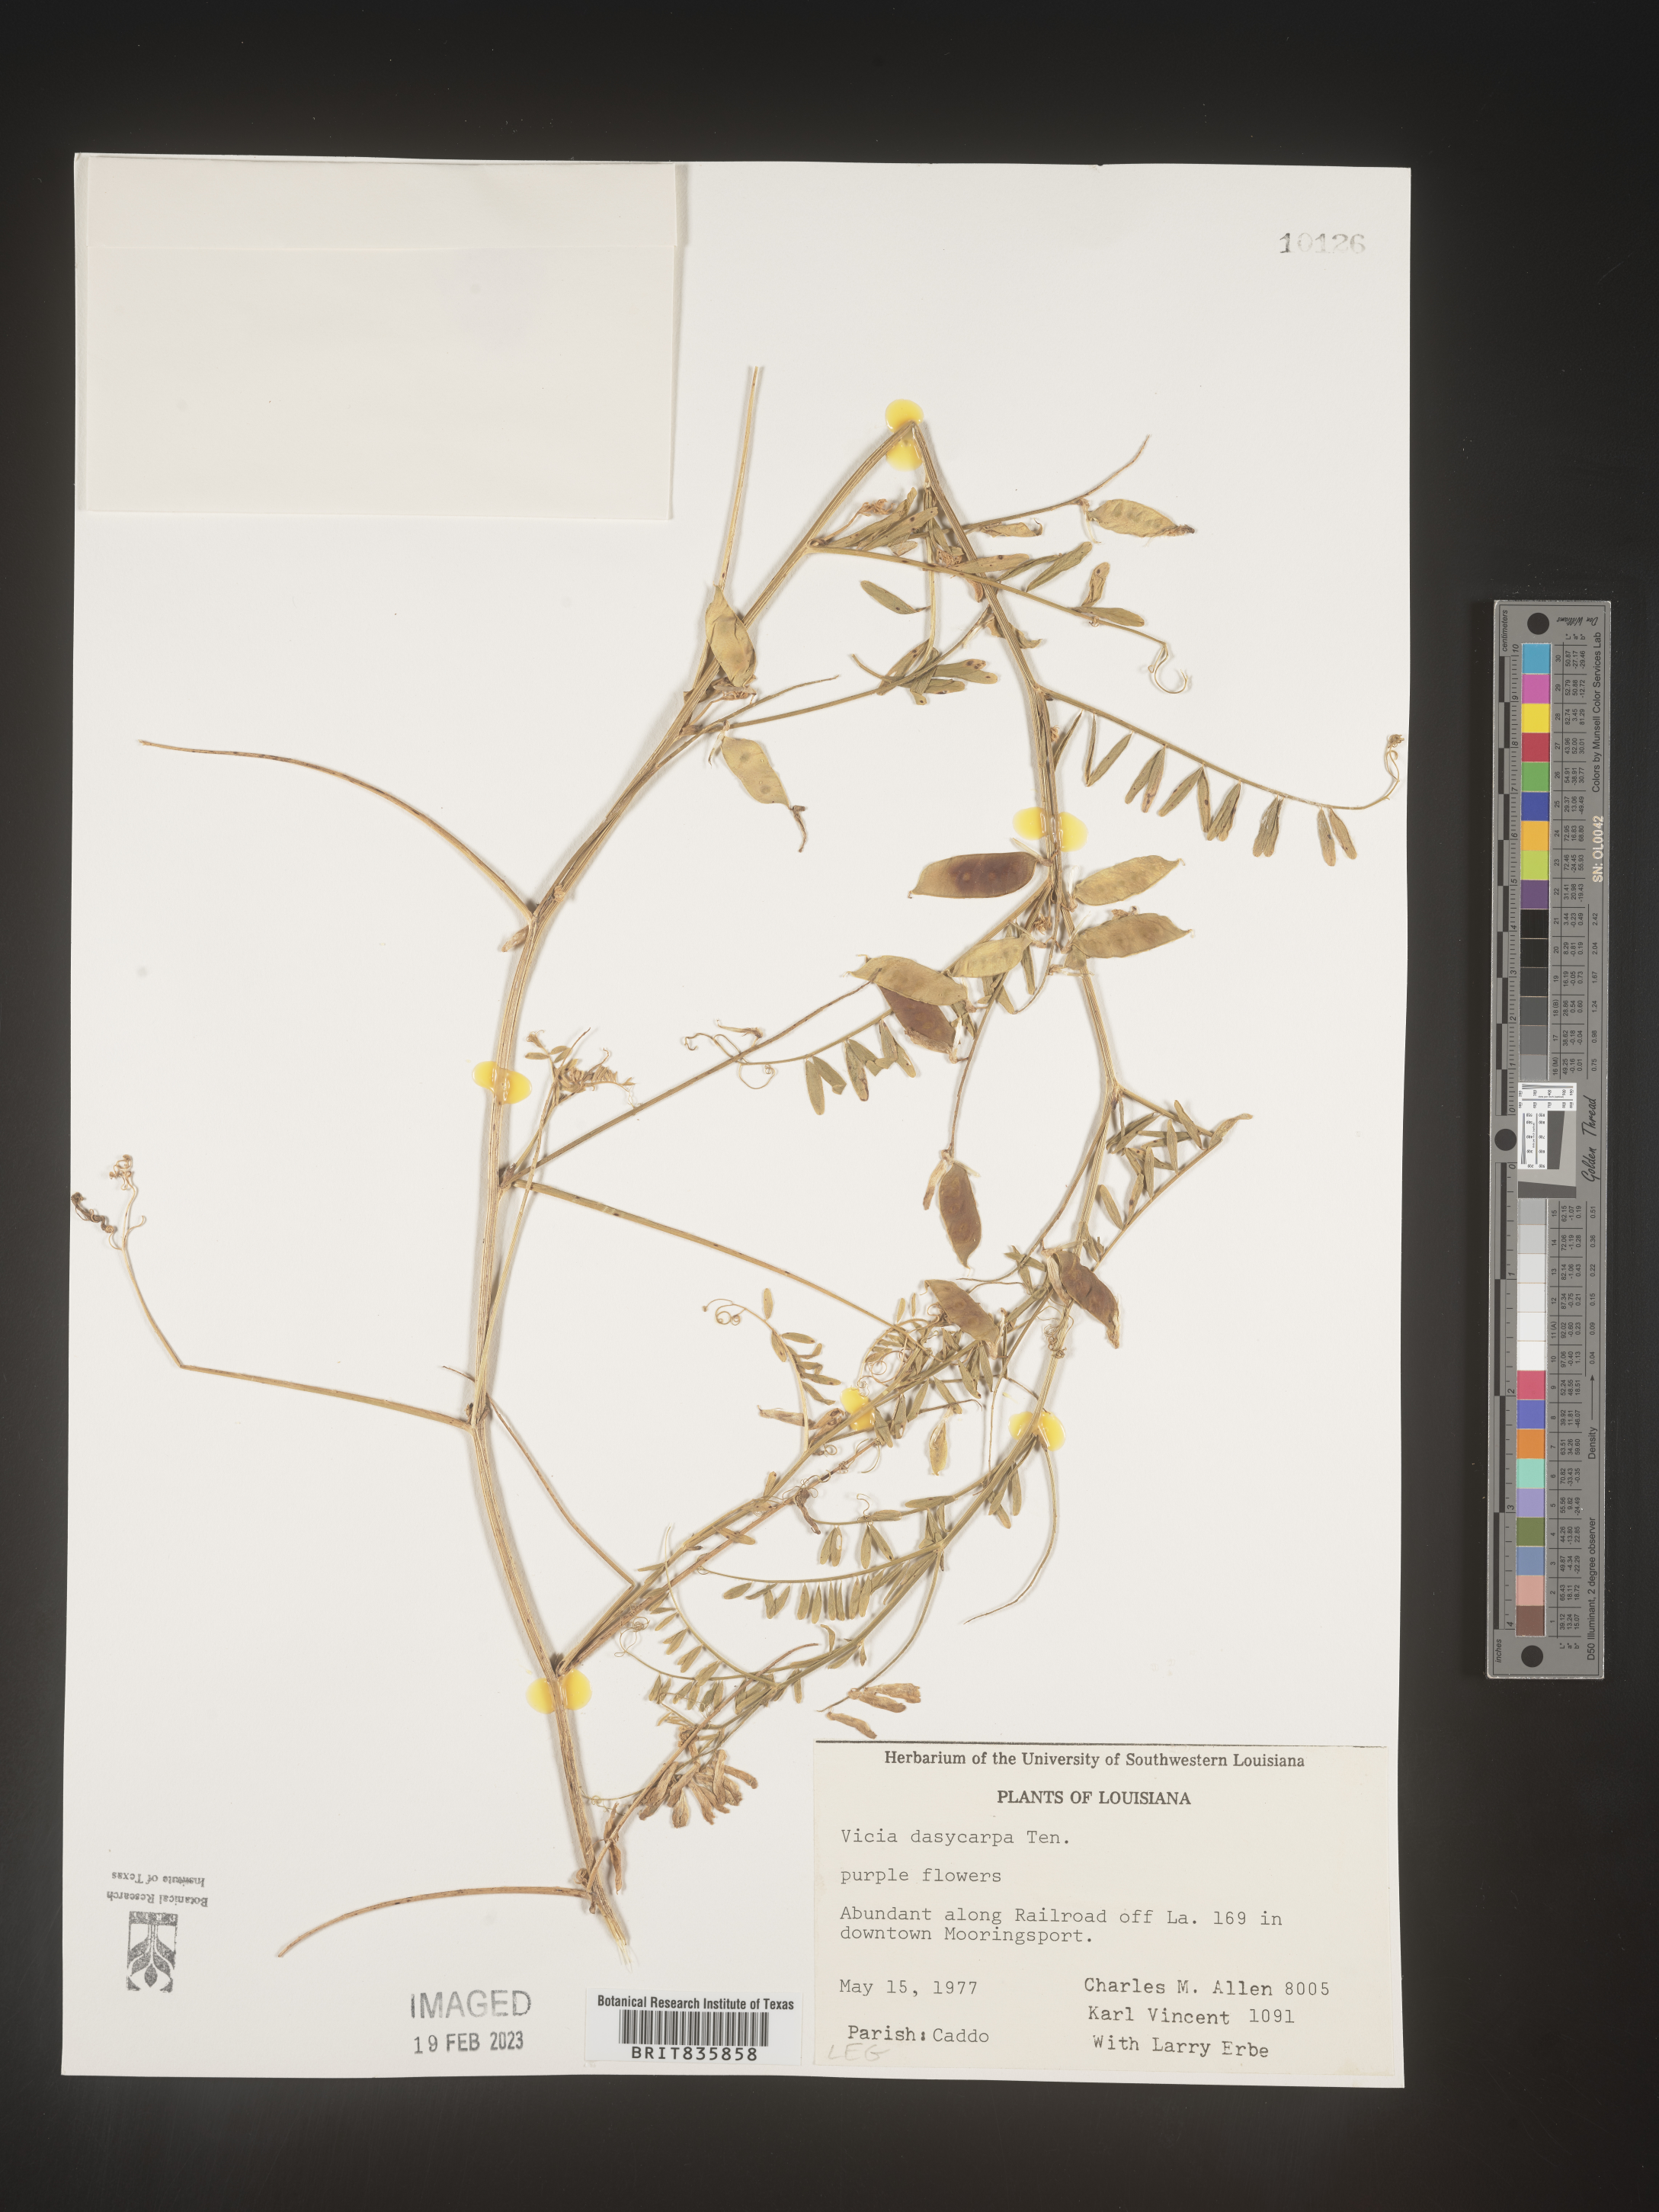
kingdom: Plantae
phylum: Tracheophyta
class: Magnoliopsida
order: Fabales
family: Fabaceae
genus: Vicia
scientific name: Vicia villosa
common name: Fodder vetch
